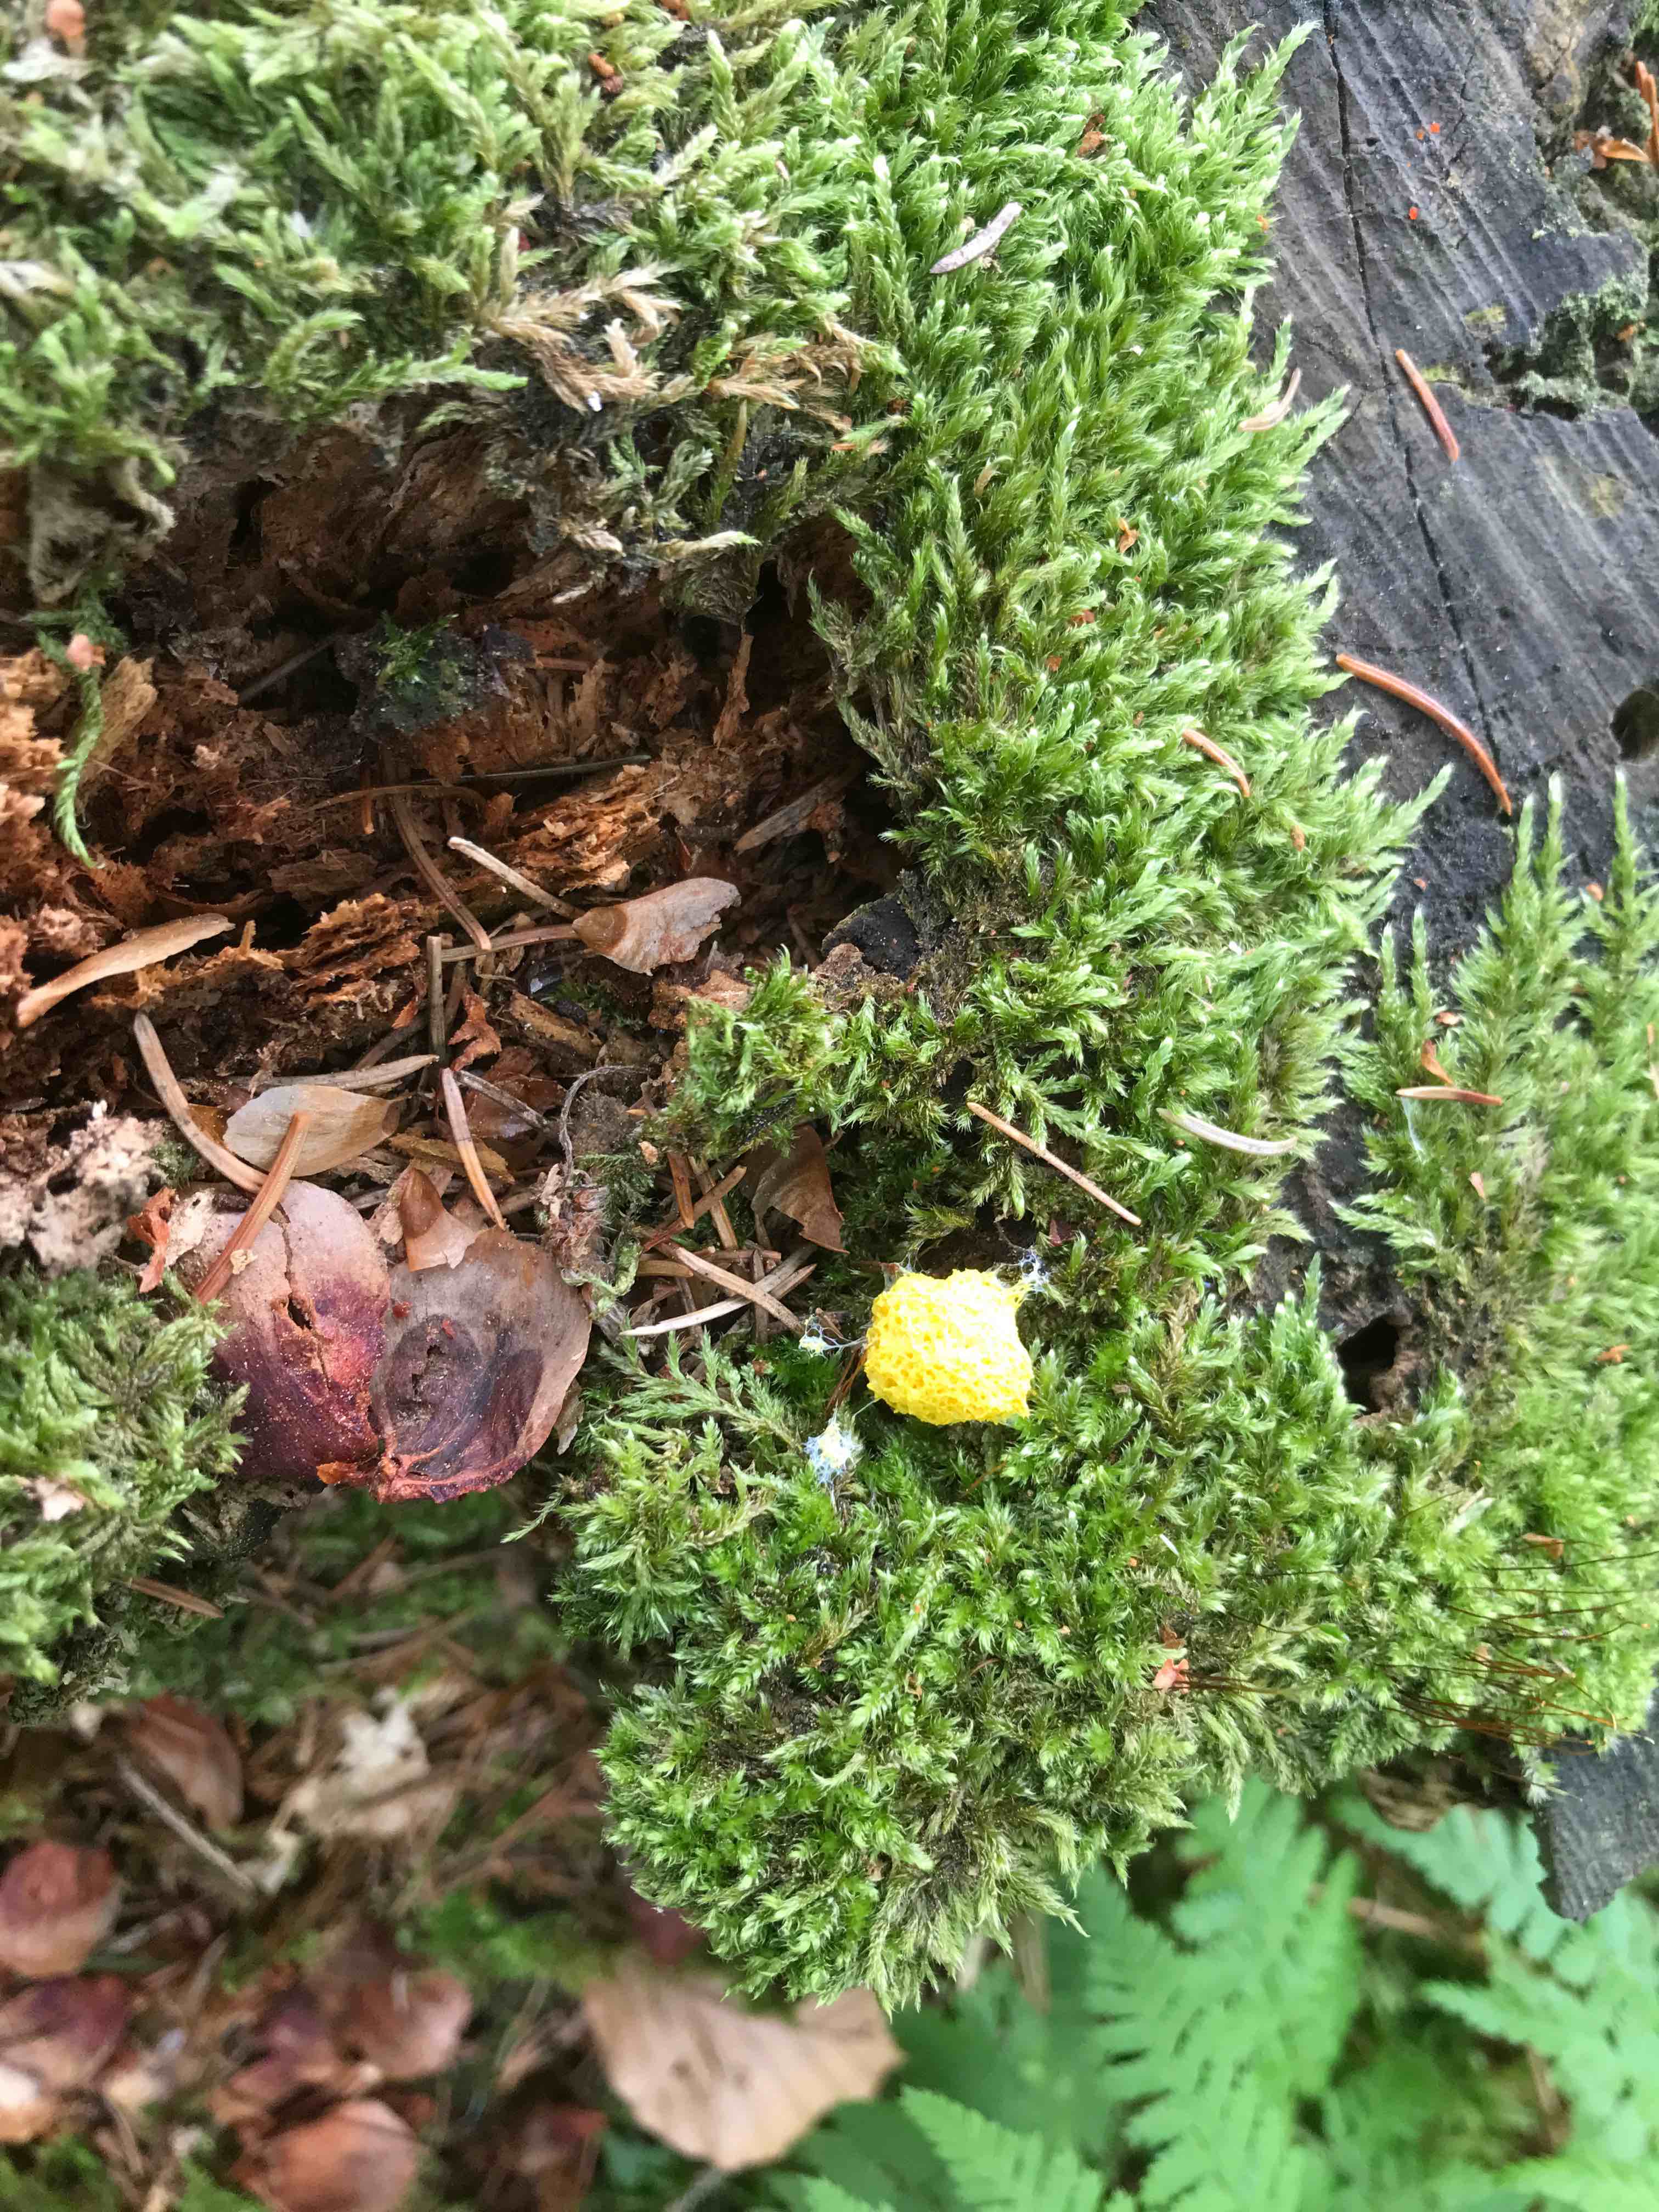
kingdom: Protozoa
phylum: Mycetozoa
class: Myxomycetes
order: Physarales
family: Physaraceae
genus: Fuligo
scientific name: Fuligo septica
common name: gul troldsmør
